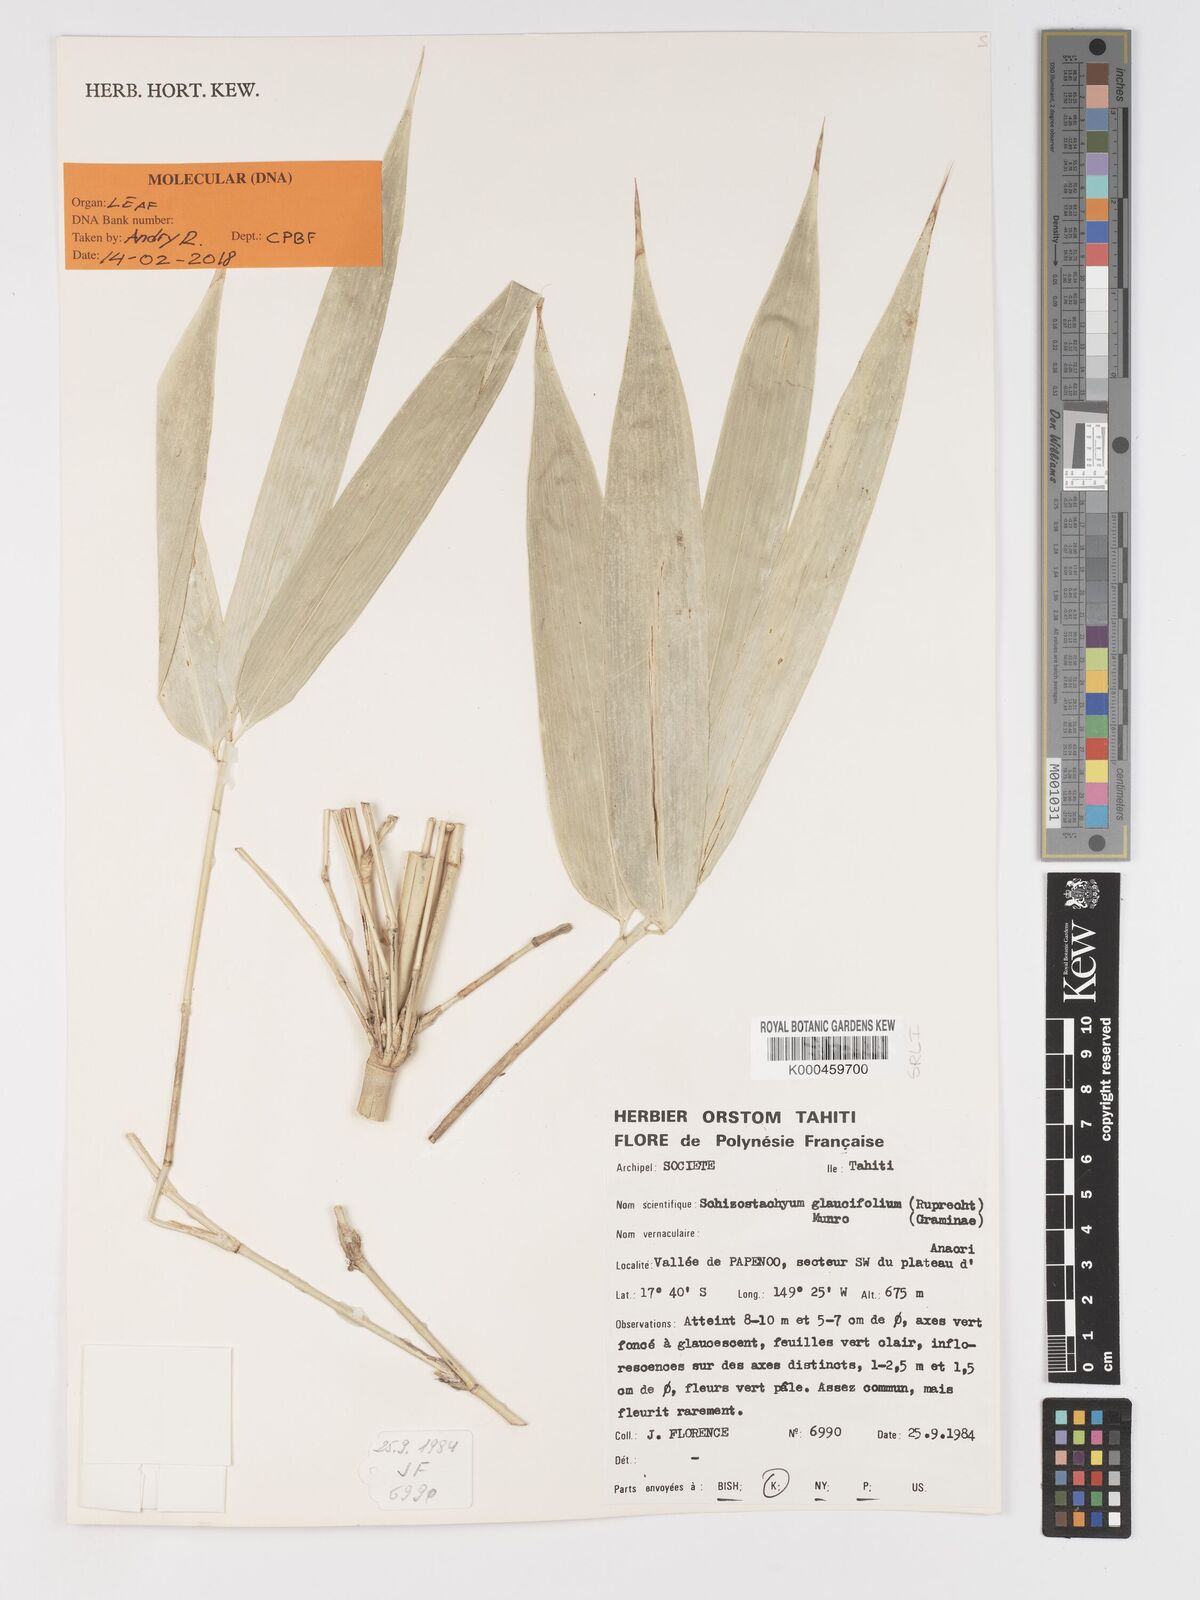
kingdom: Plantae
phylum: Tracheophyta
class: Liliopsida
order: Poales
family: Poaceae
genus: Schizostachyum
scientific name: Schizostachyum glaucifolium
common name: Polynesian 'ohe
